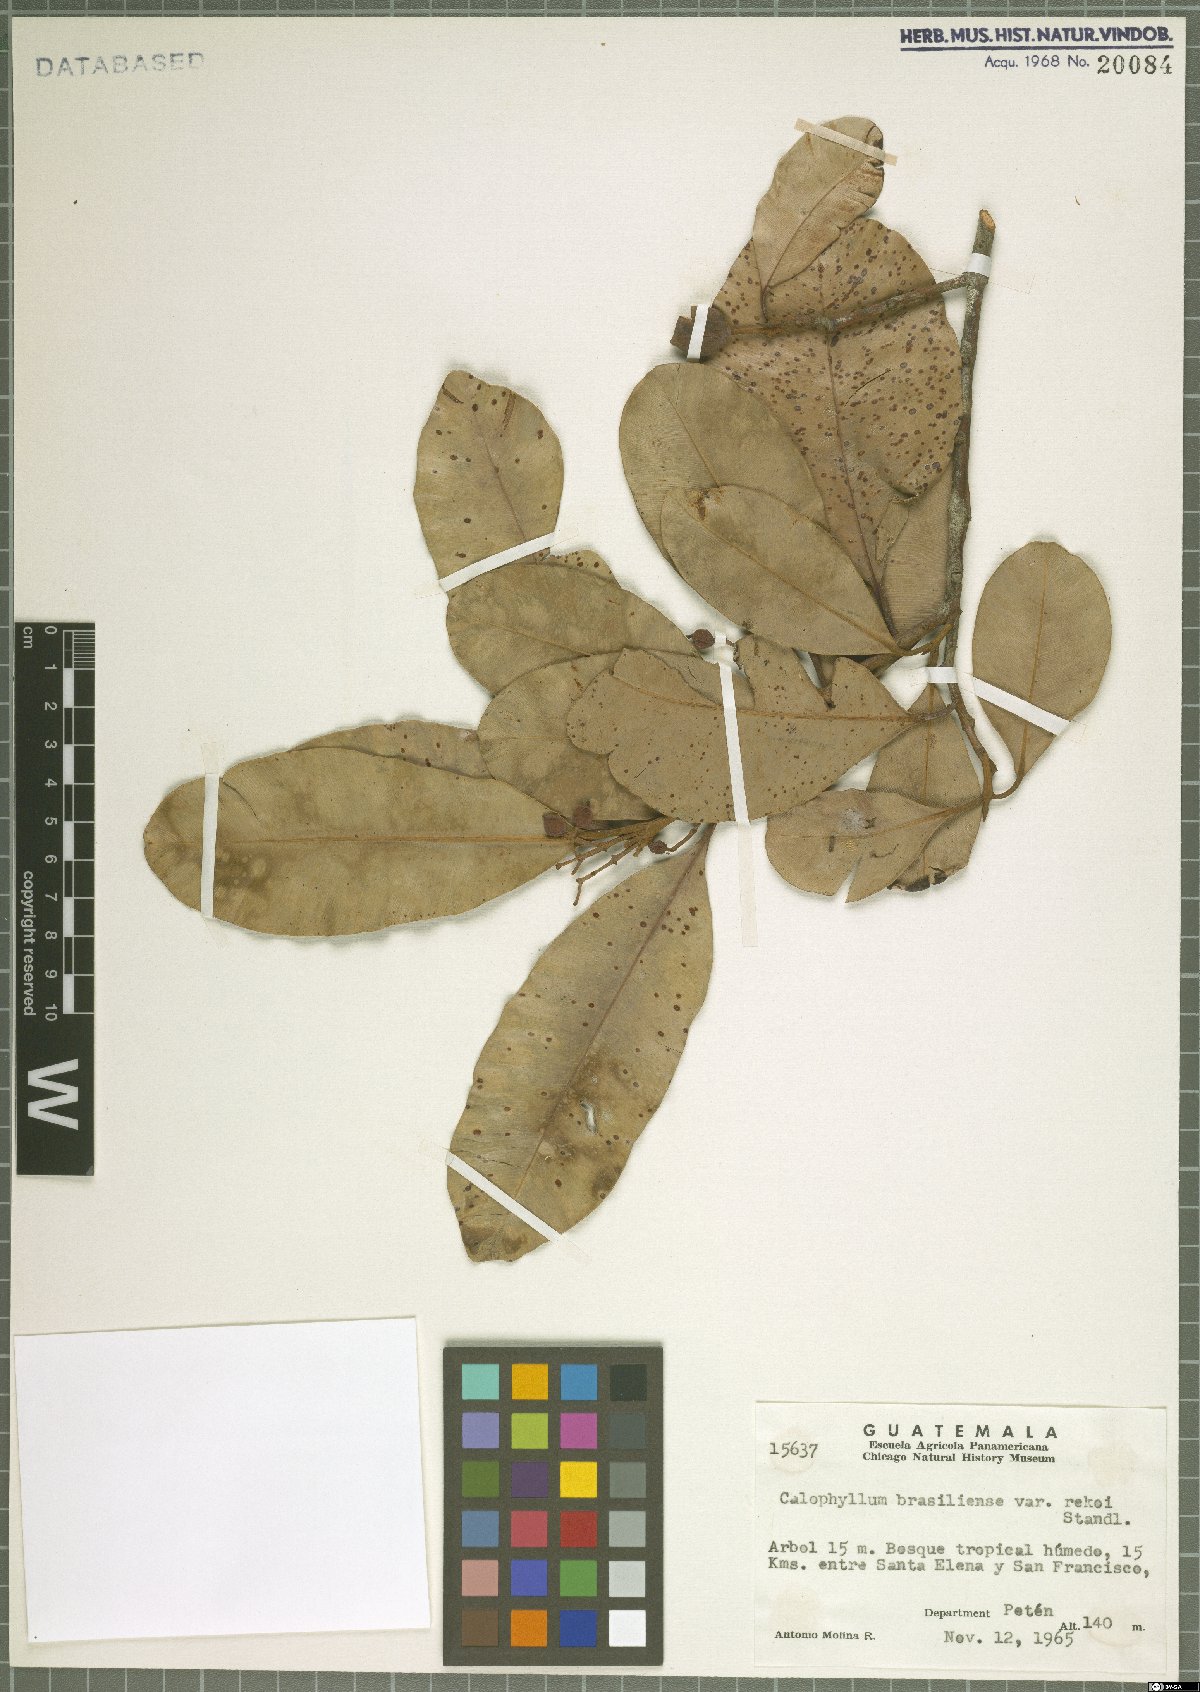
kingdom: Plantae
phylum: Tracheophyta
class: Magnoliopsida
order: Malpighiales
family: Calophyllaceae
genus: Calophyllum
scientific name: Calophyllum brasiliense
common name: Santa maria
